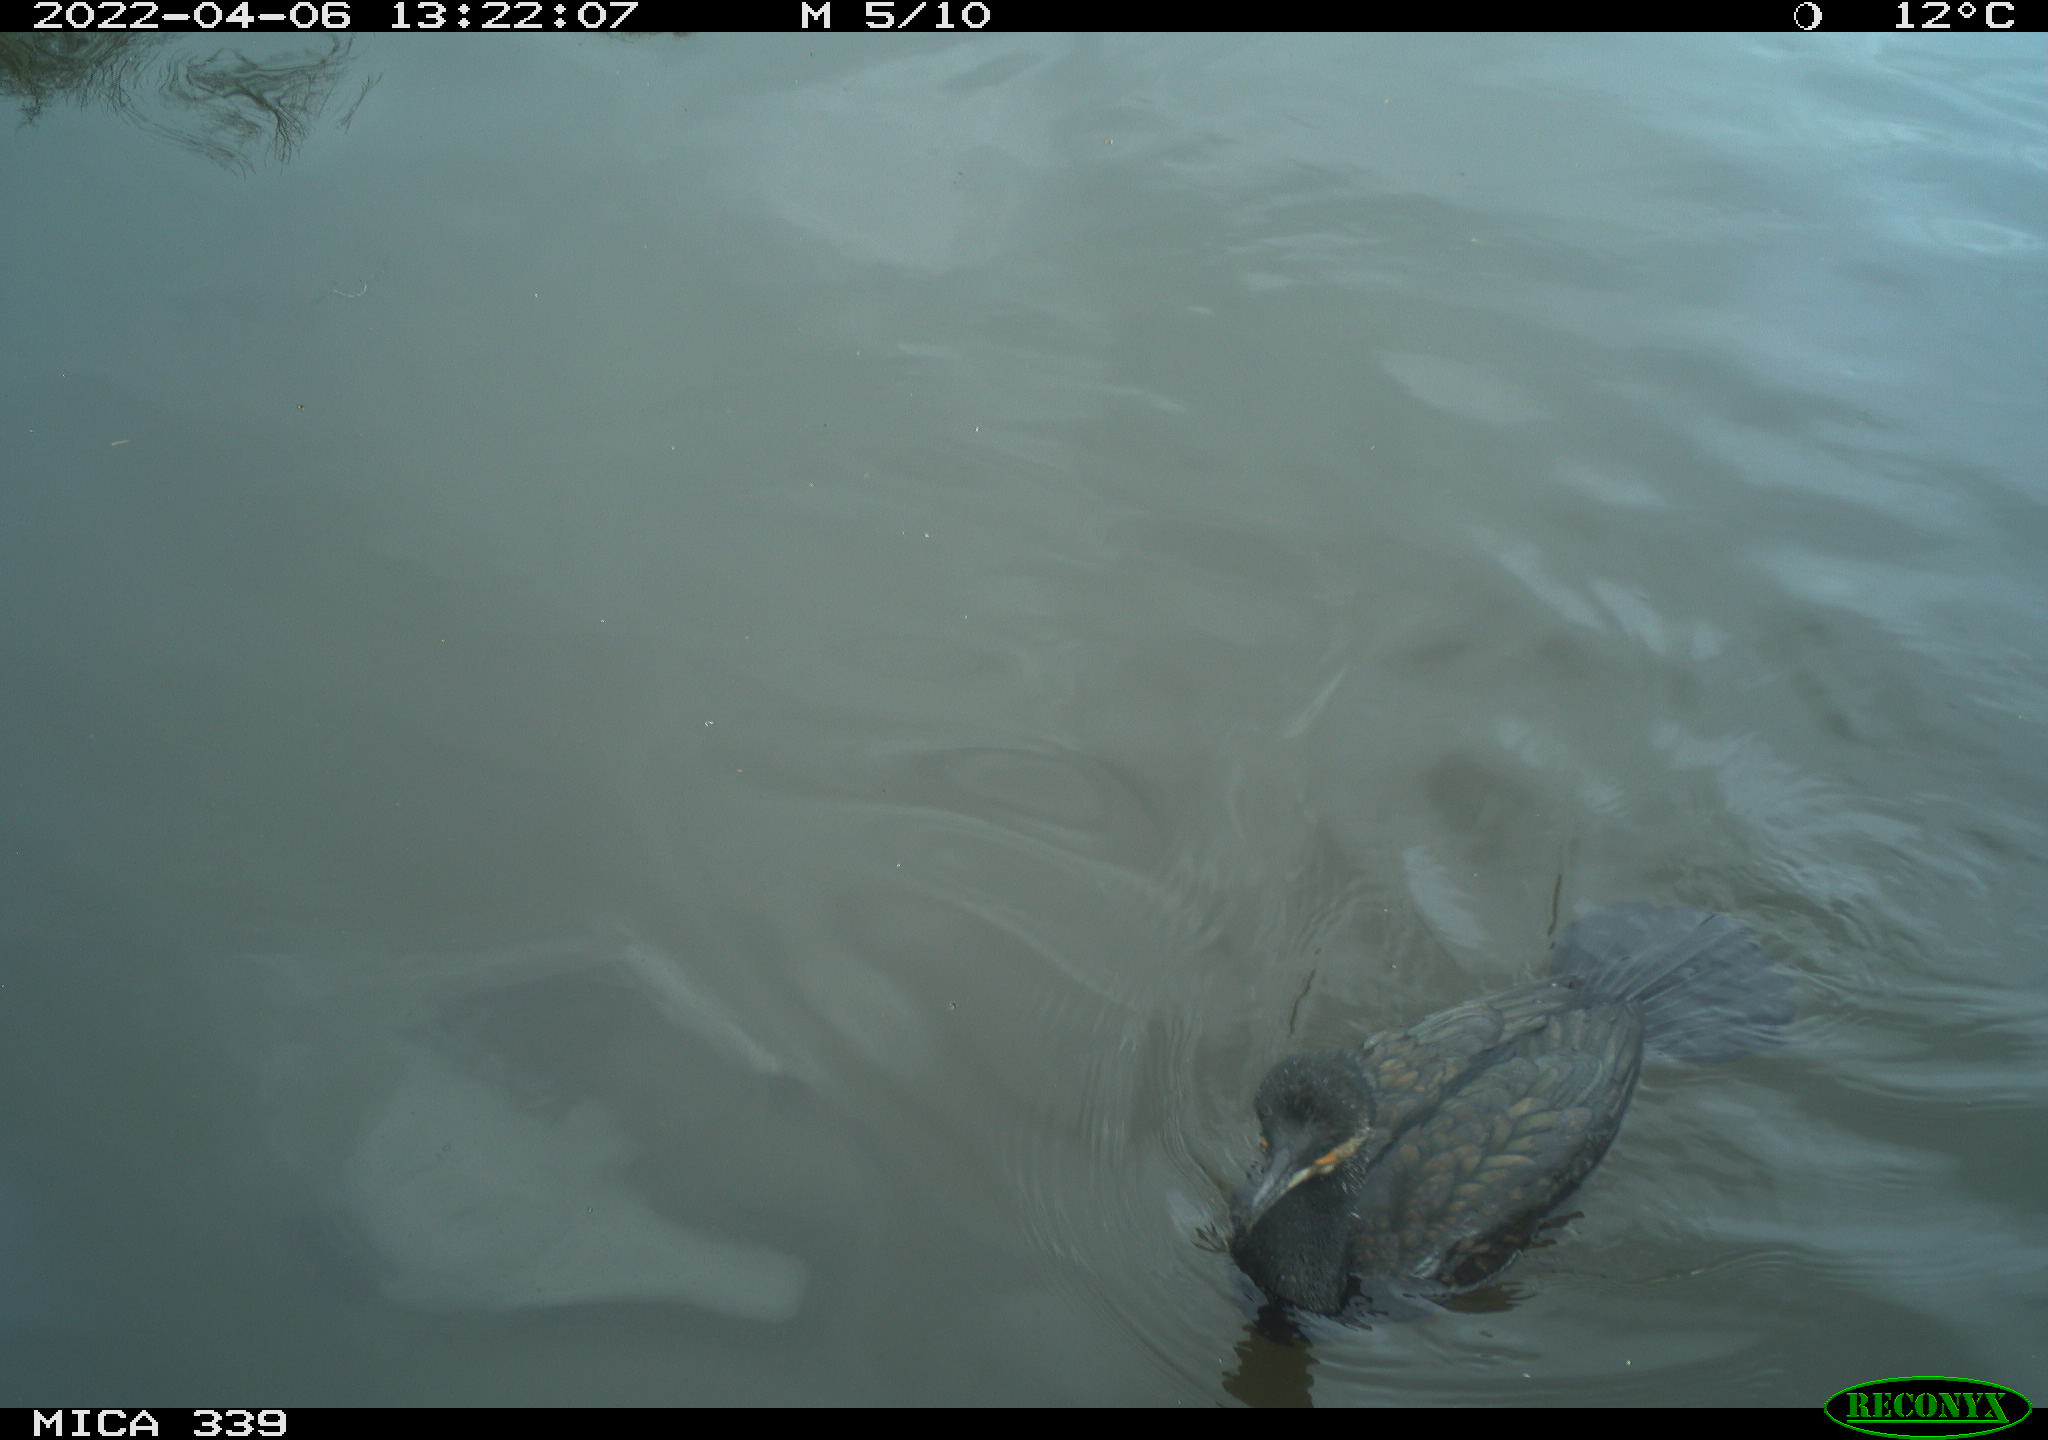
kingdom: Animalia
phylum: Chordata
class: Aves
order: Suliformes
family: Phalacrocoracidae
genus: Phalacrocorax
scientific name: Phalacrocorax carbo
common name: Great cormorant
